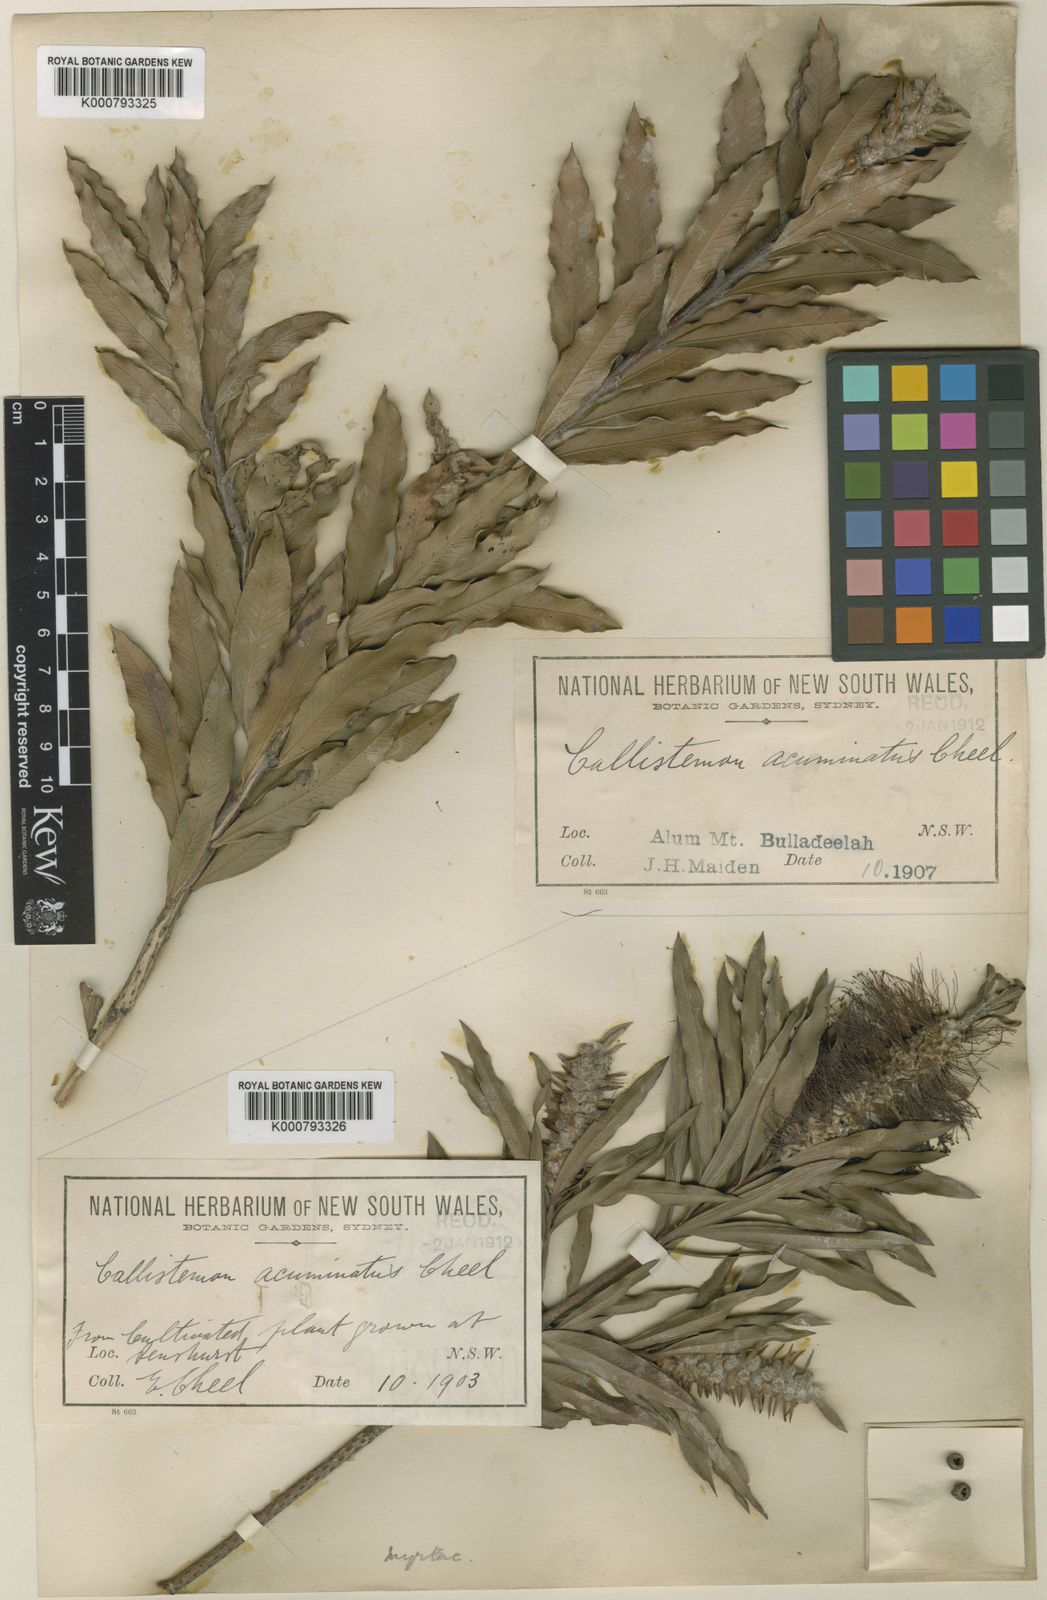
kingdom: Plantae
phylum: Tracheophyta
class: Magnoliopsida
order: Myrtales
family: Myrtaceae
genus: Callistemon
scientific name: Callistemon acuminatus
